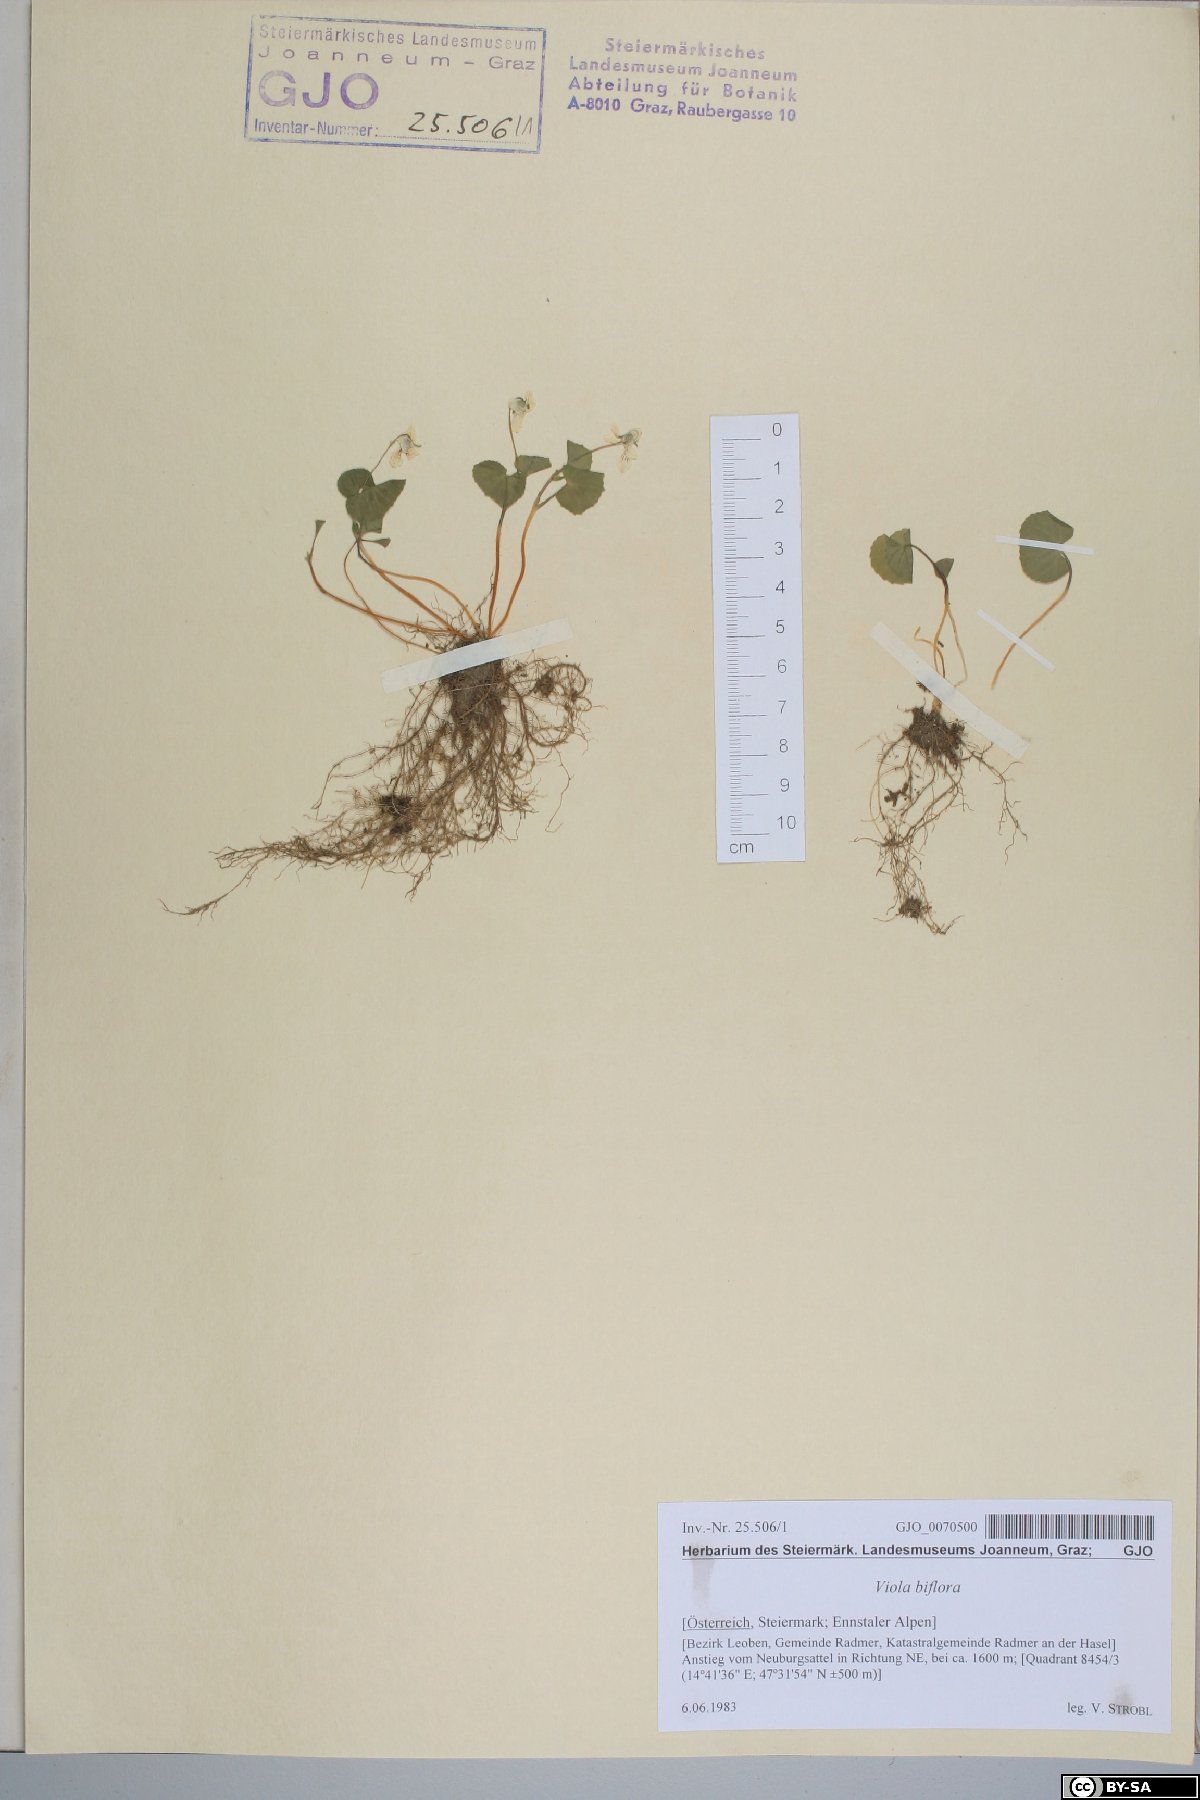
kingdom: Plantae
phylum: Tracheophyta
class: Magnoliopsida
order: Malpighiales
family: Violaceae
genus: Viola
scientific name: Viola biflora
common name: Alpine yellow violet
